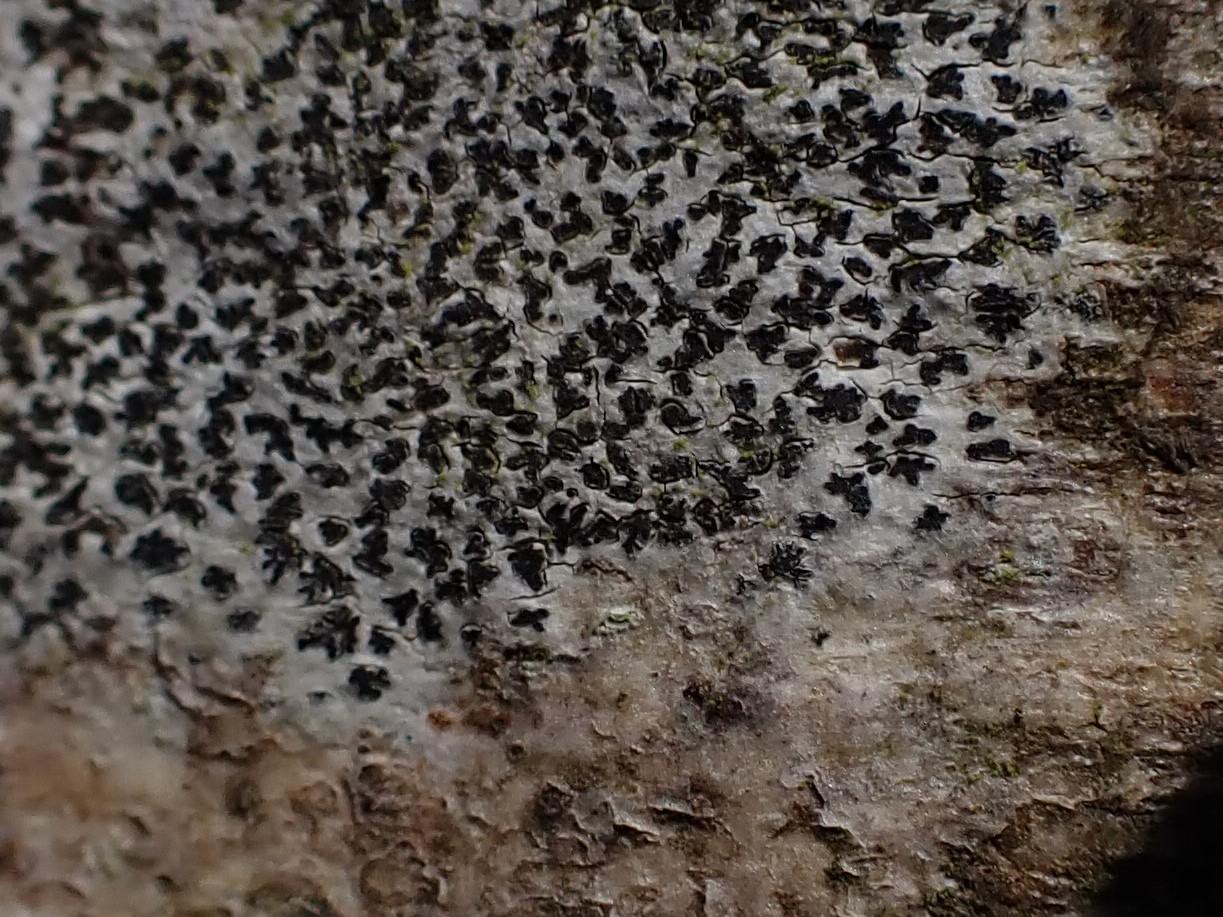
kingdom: Fungi
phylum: Ascomycota
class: Arthoniomycetes
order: Arthoniales
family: Arthoniaceae
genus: Arthonia
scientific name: Arthonia radiata
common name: stjerne-pletlav
